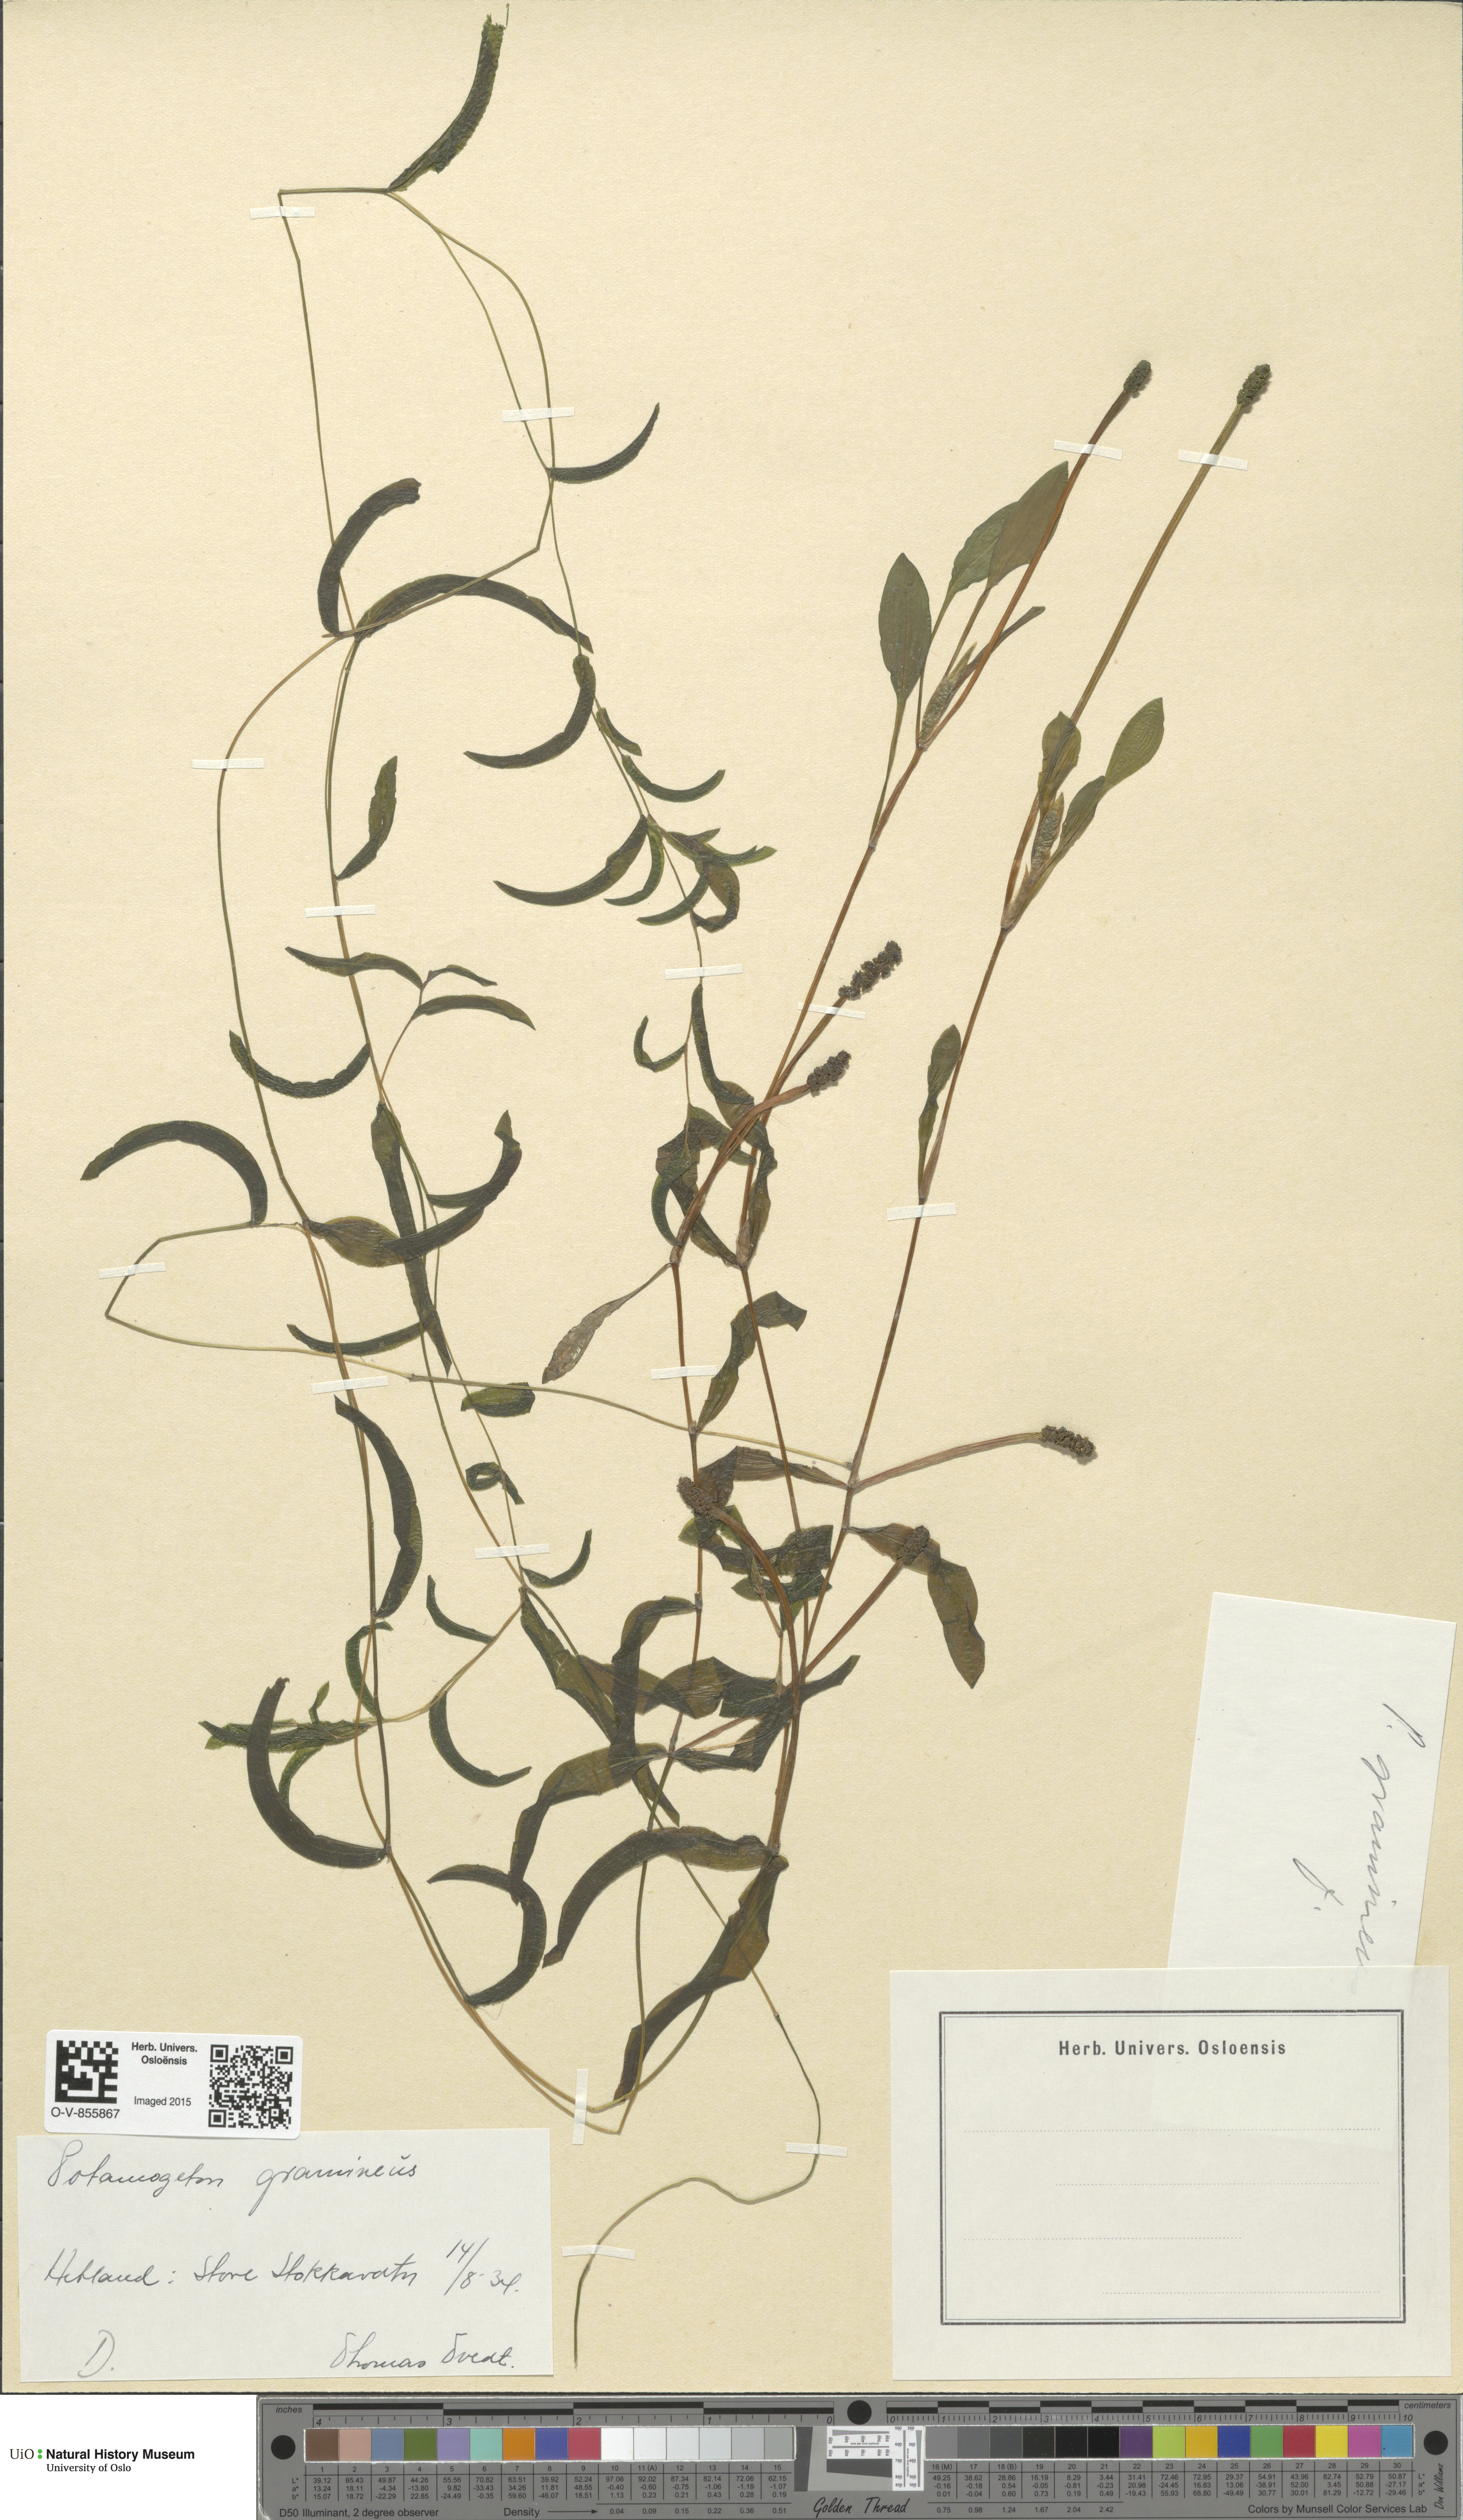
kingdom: Plantae
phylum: Tracheophyta
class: Liliopsida
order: Alismatales
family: Potamogetonaceae
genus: Potamogeton
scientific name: Potamogeton nitens
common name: Pondweed
